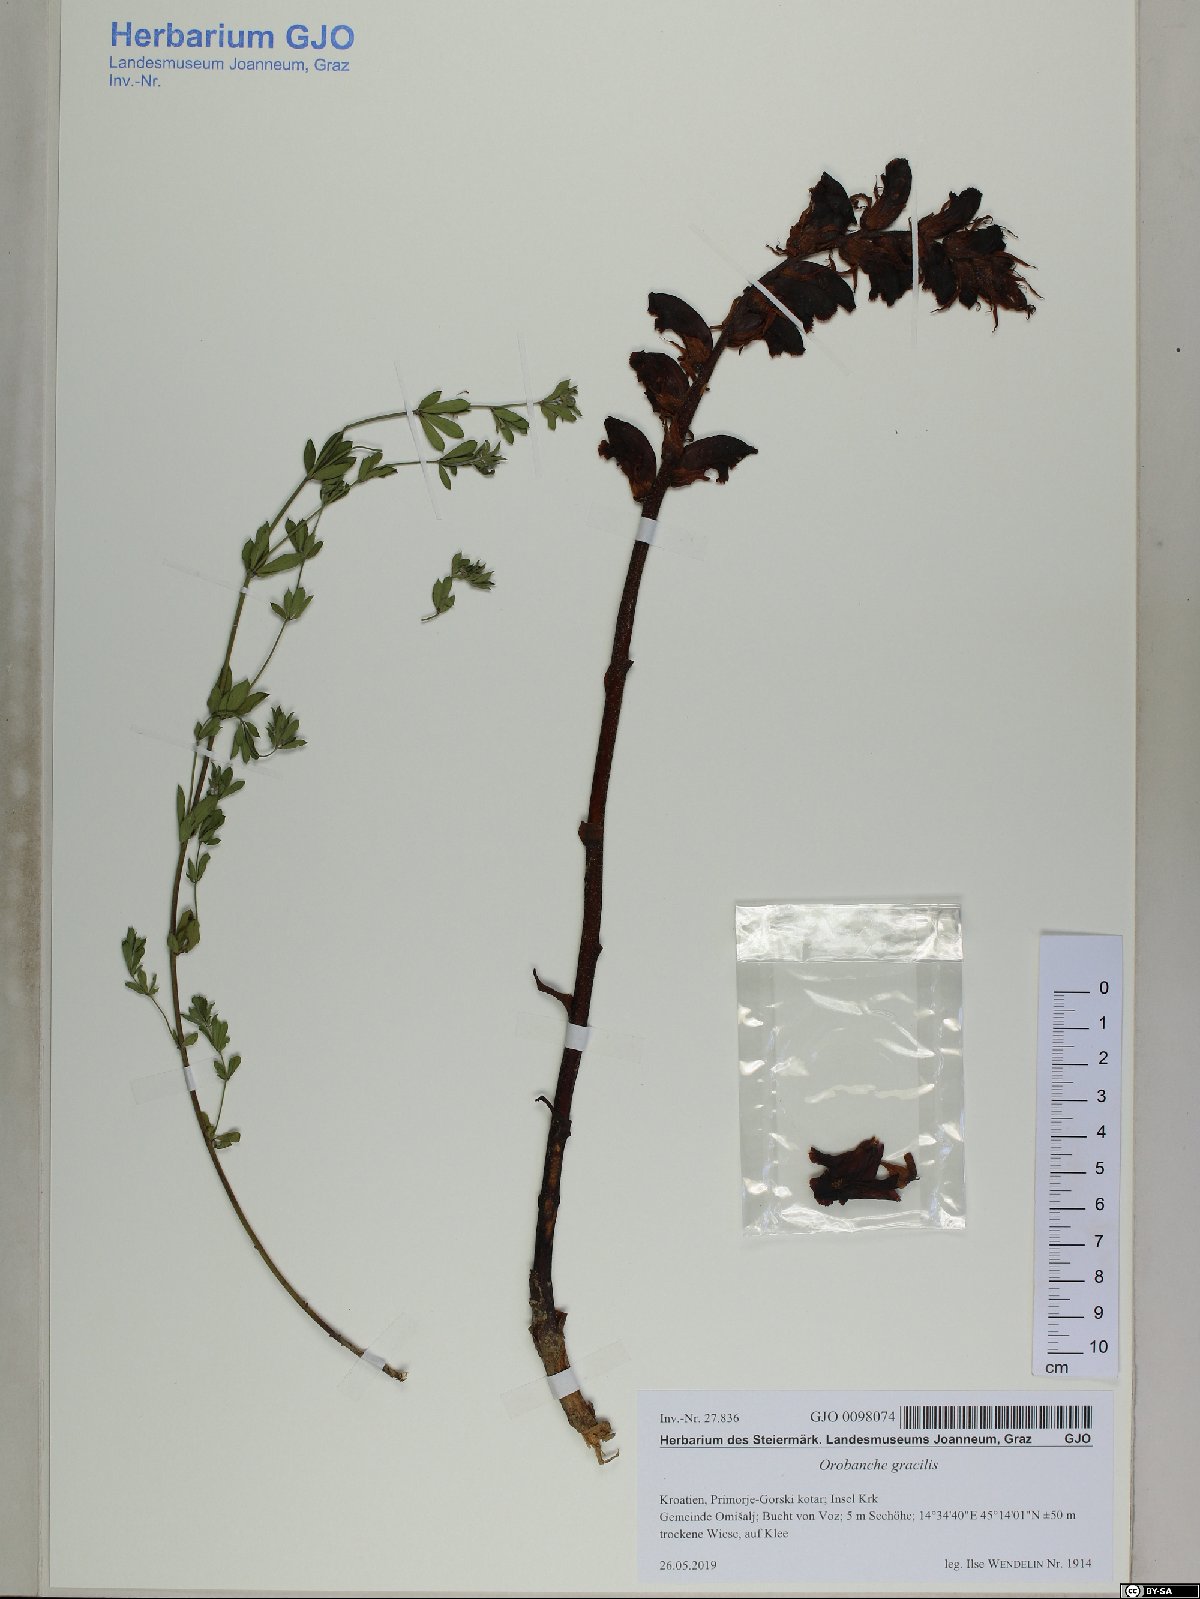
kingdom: Plantae
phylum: Tracheophyta
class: Magnoliopsida
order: Lamiales
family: Orobanchaceae
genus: Orobanche
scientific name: Orobanche gracilis
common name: Slender broomrape
